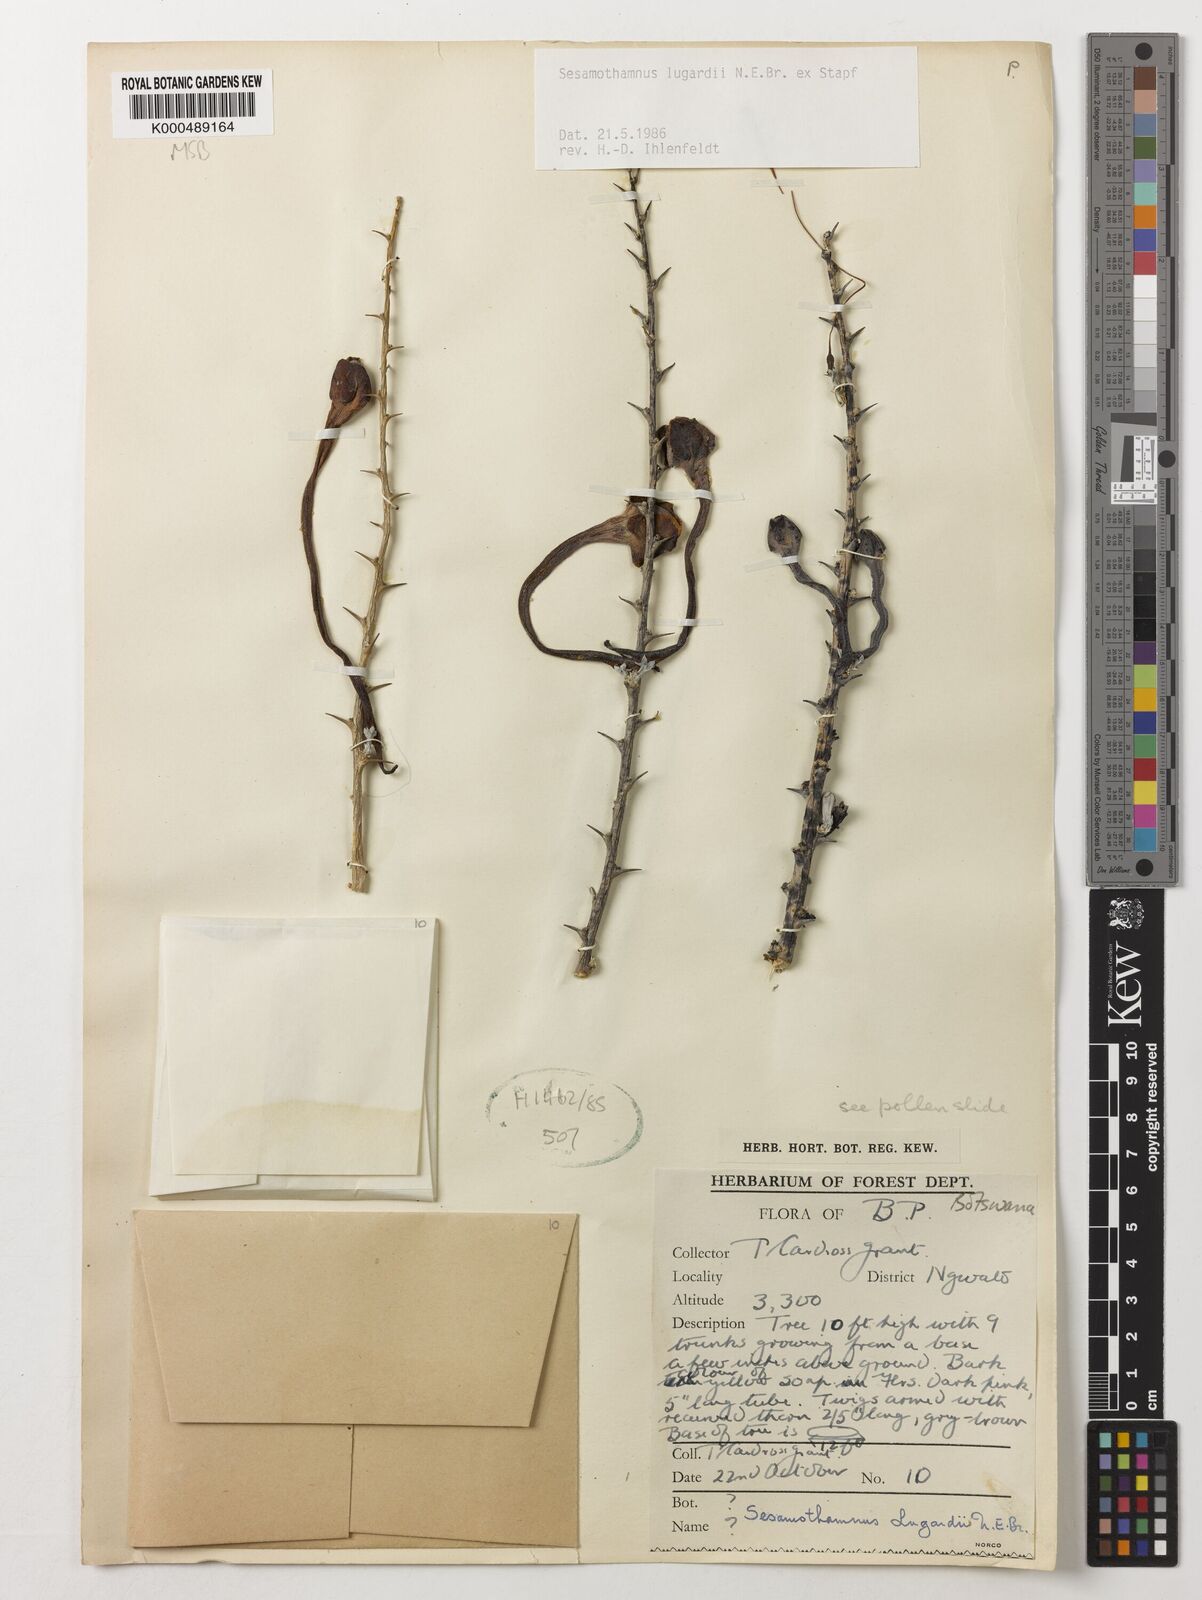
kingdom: Plantae
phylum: Tracheophyta
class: Magnoliopsida
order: Lamiales
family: Pedaliaceae
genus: Sesamothamnus
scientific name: Sesamothamnus lugardii
